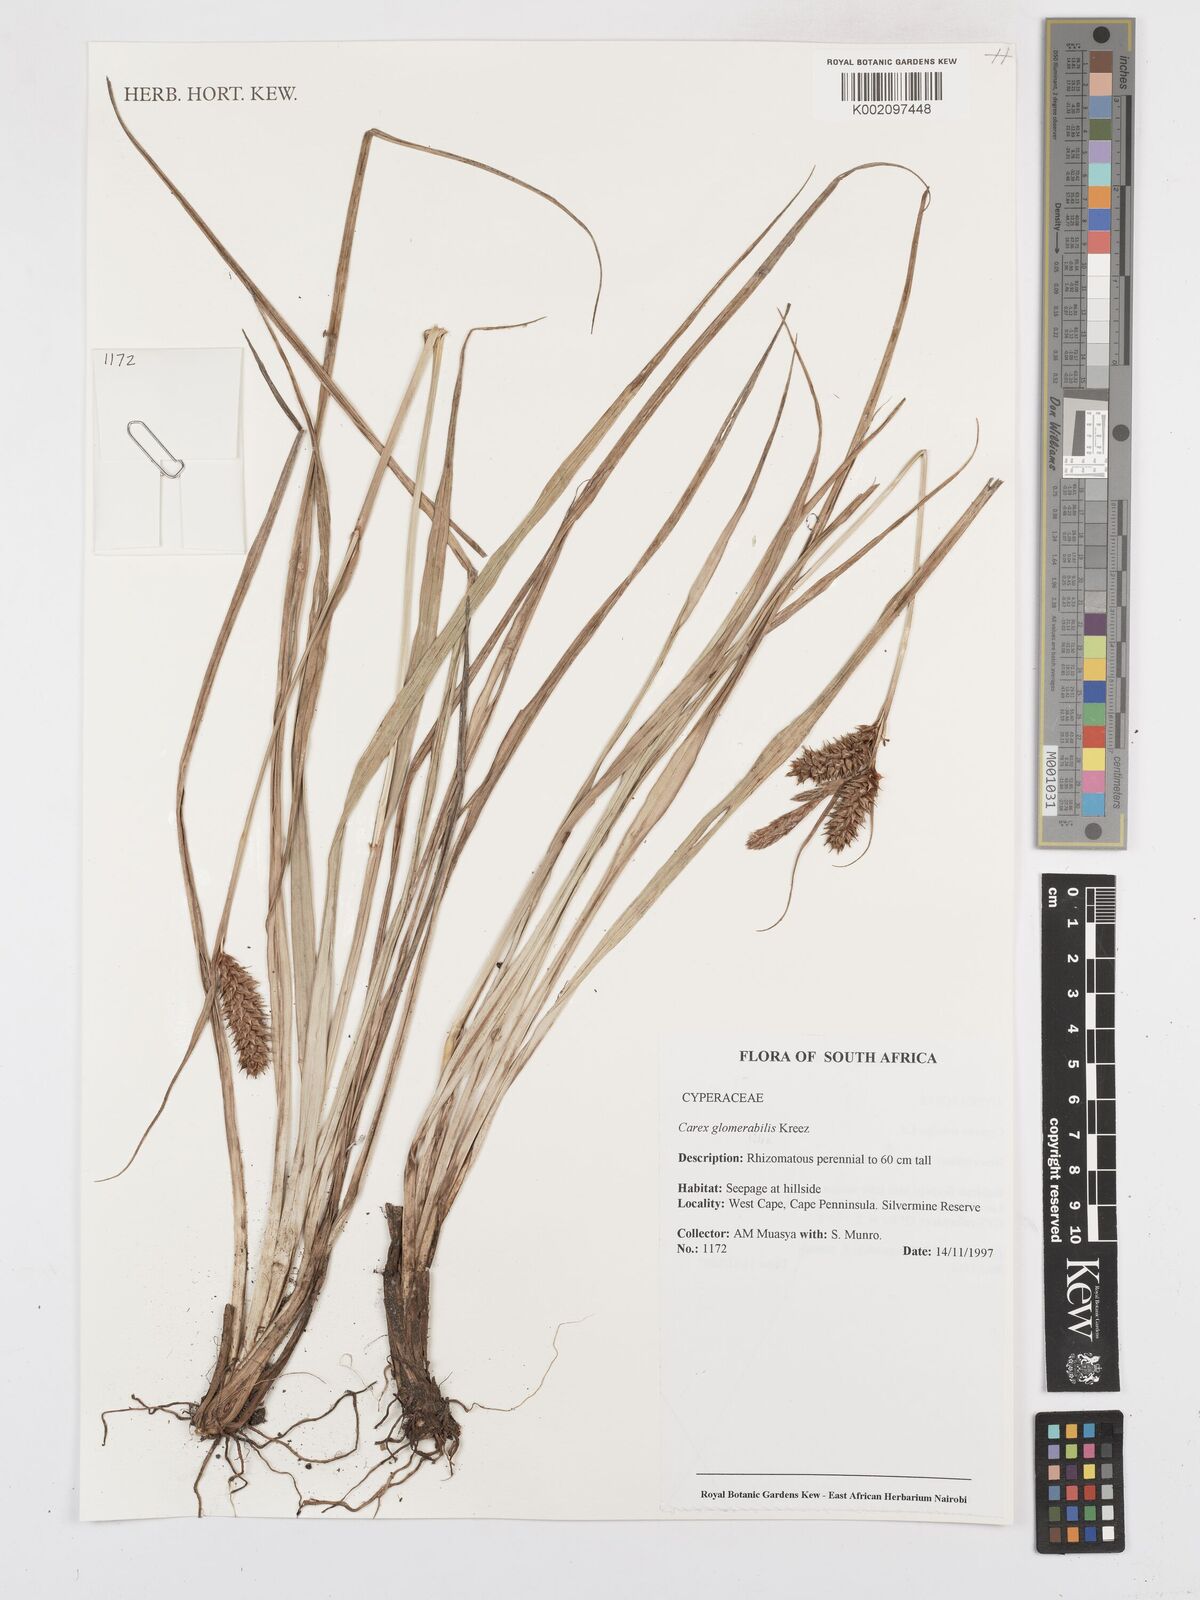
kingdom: Plantae
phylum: Tracheophyta
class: Liliopsida
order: Poales
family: Cyperaceae
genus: Carex
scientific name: Carex glomerata
